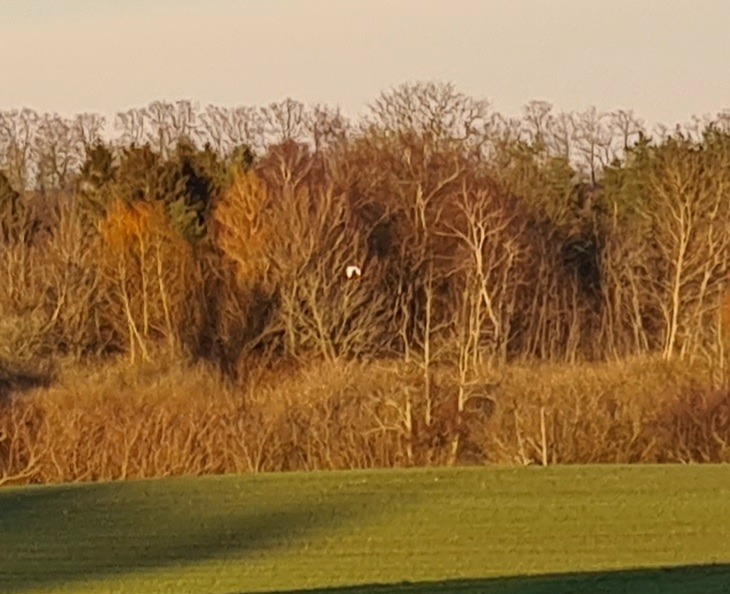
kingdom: Animalia
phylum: Chordata
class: Aves
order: Pelecaniformes
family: Ardeidae
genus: Ardea
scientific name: Ardea alba
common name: Sølvhejre
